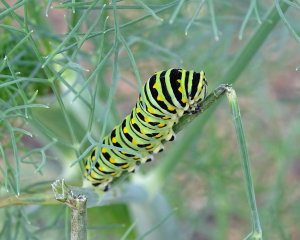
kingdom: Animalia
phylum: Arthropoda
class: Insecta
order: Lepidoptera
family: Papilionidae
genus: Papilio
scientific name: Papilio polyxenes
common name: Black Swallowtail
